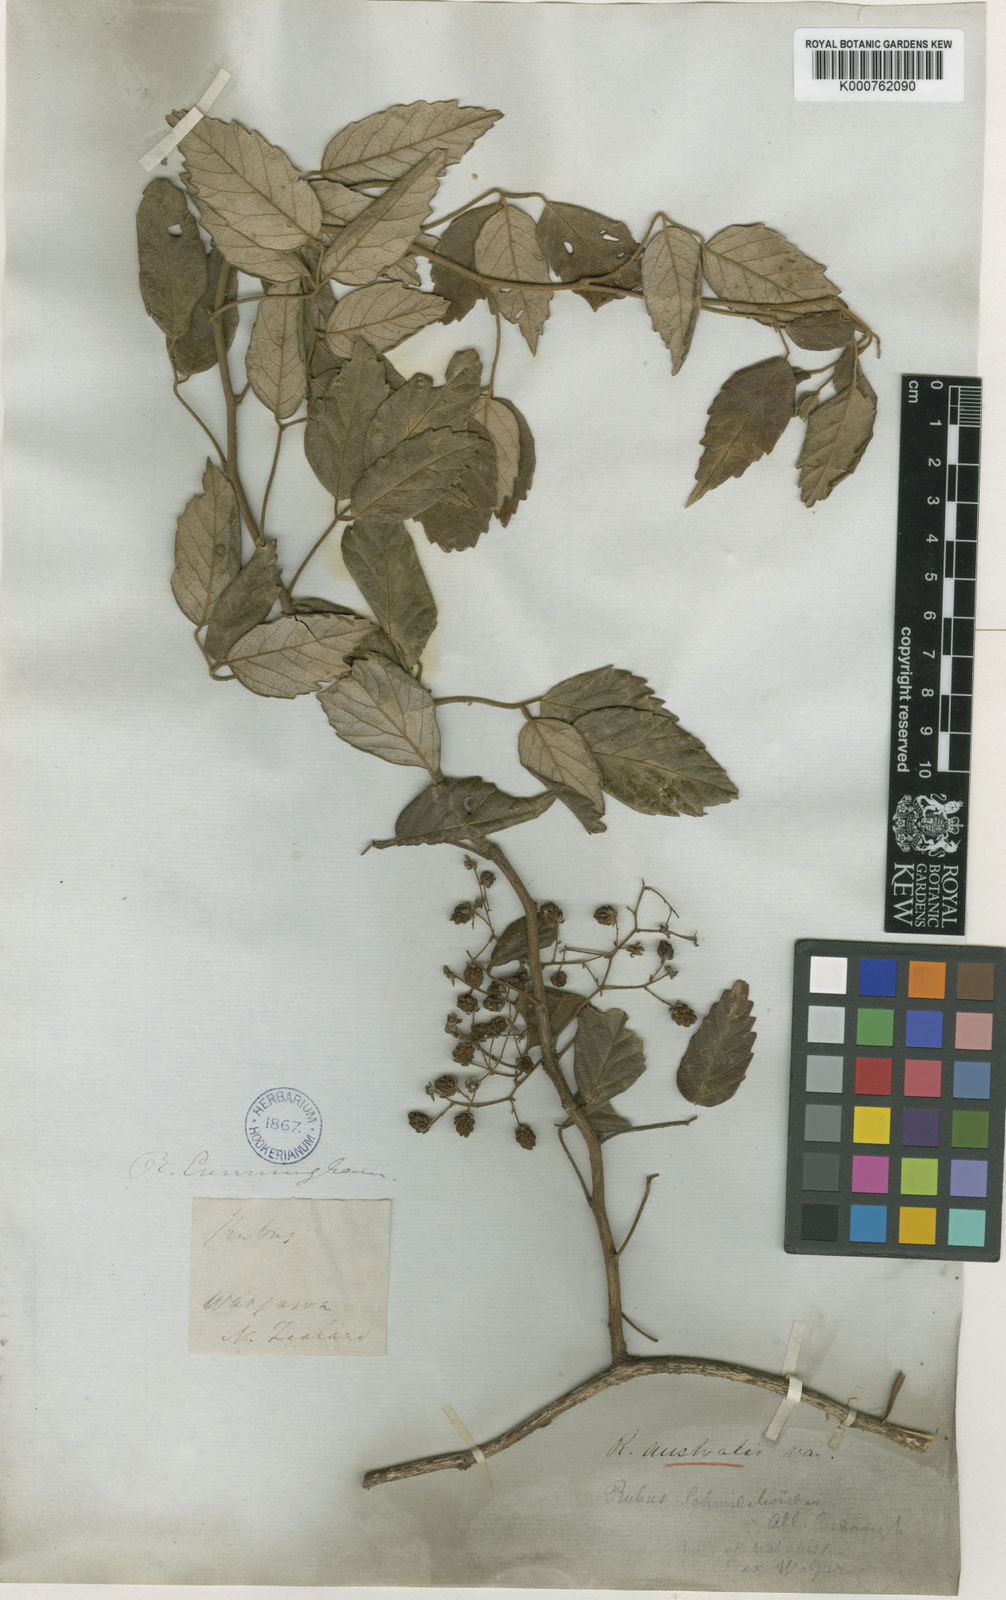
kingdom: Plantae
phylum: Tracheophyta
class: Magnoliopsida
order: Rosales
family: Rosaceae
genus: Rubus
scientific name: Rubus schmidelioides
